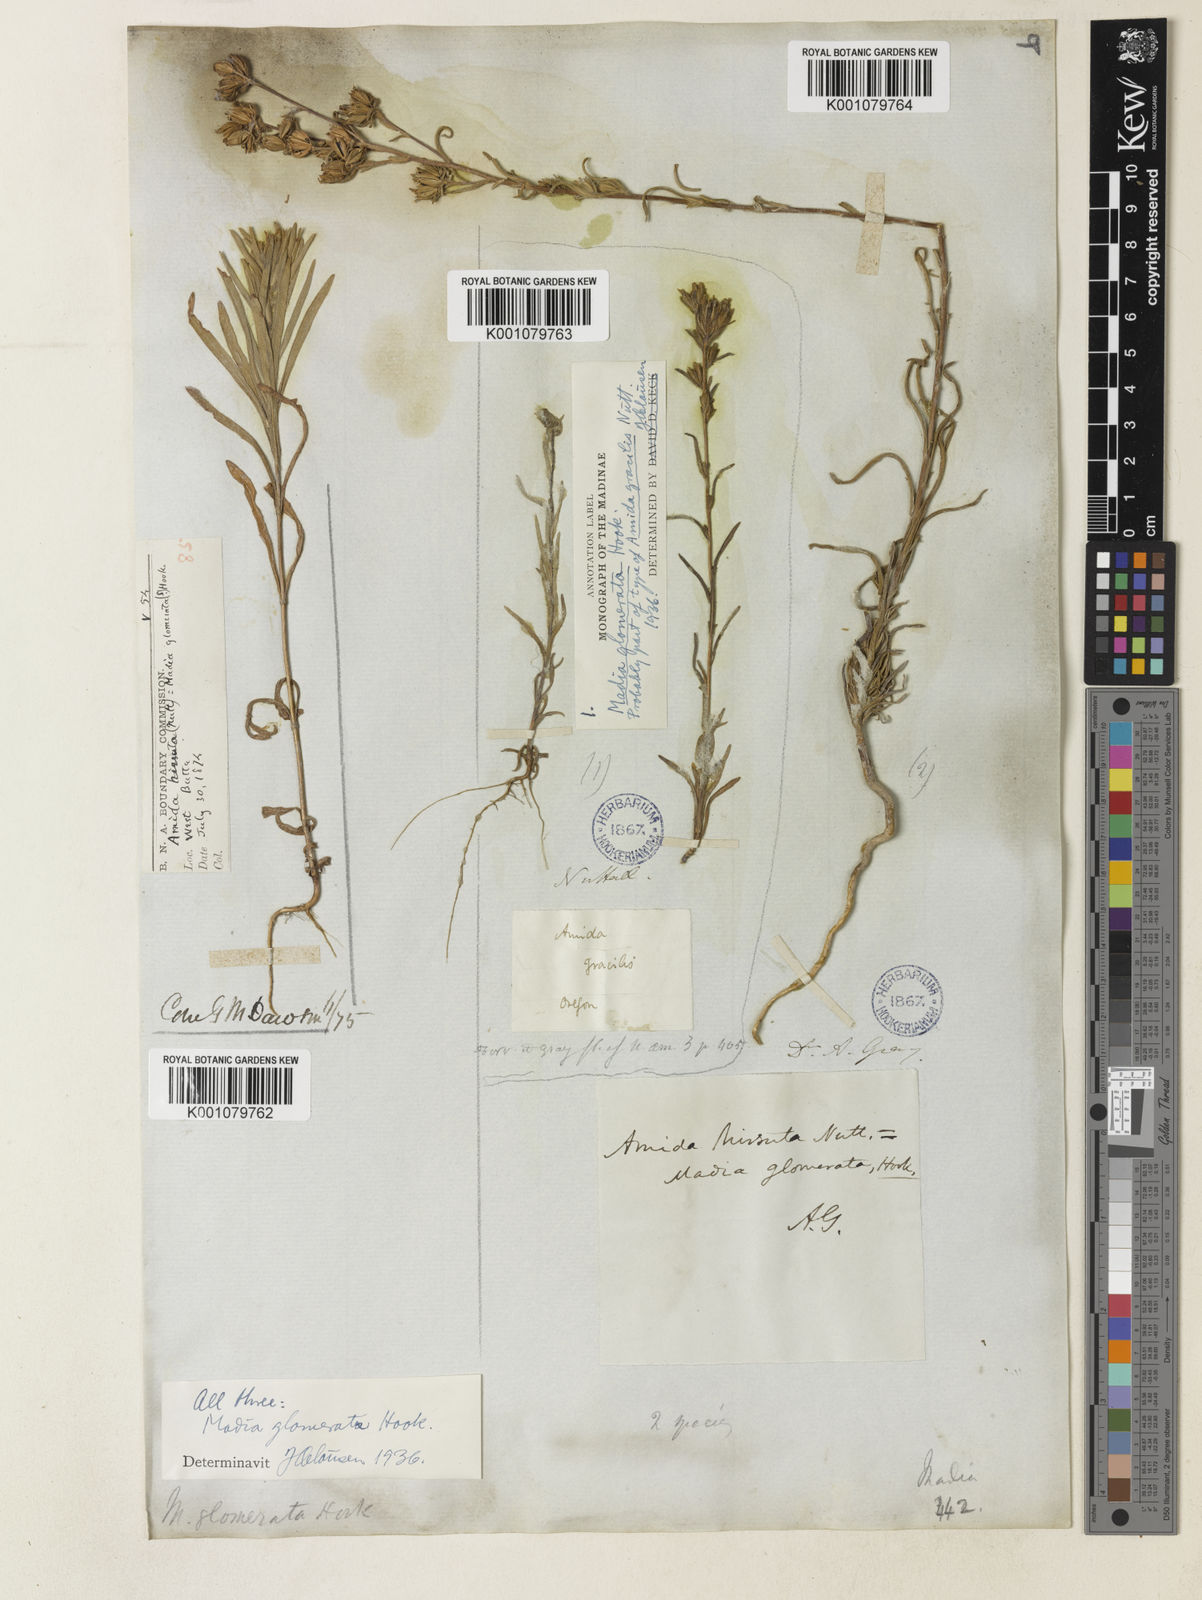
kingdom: Plantae
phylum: Tracheophyta
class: Magnoliopsida
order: Asterales
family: Asteraceae
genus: Madia
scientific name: Madia glomerata
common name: Mountain tarweed
